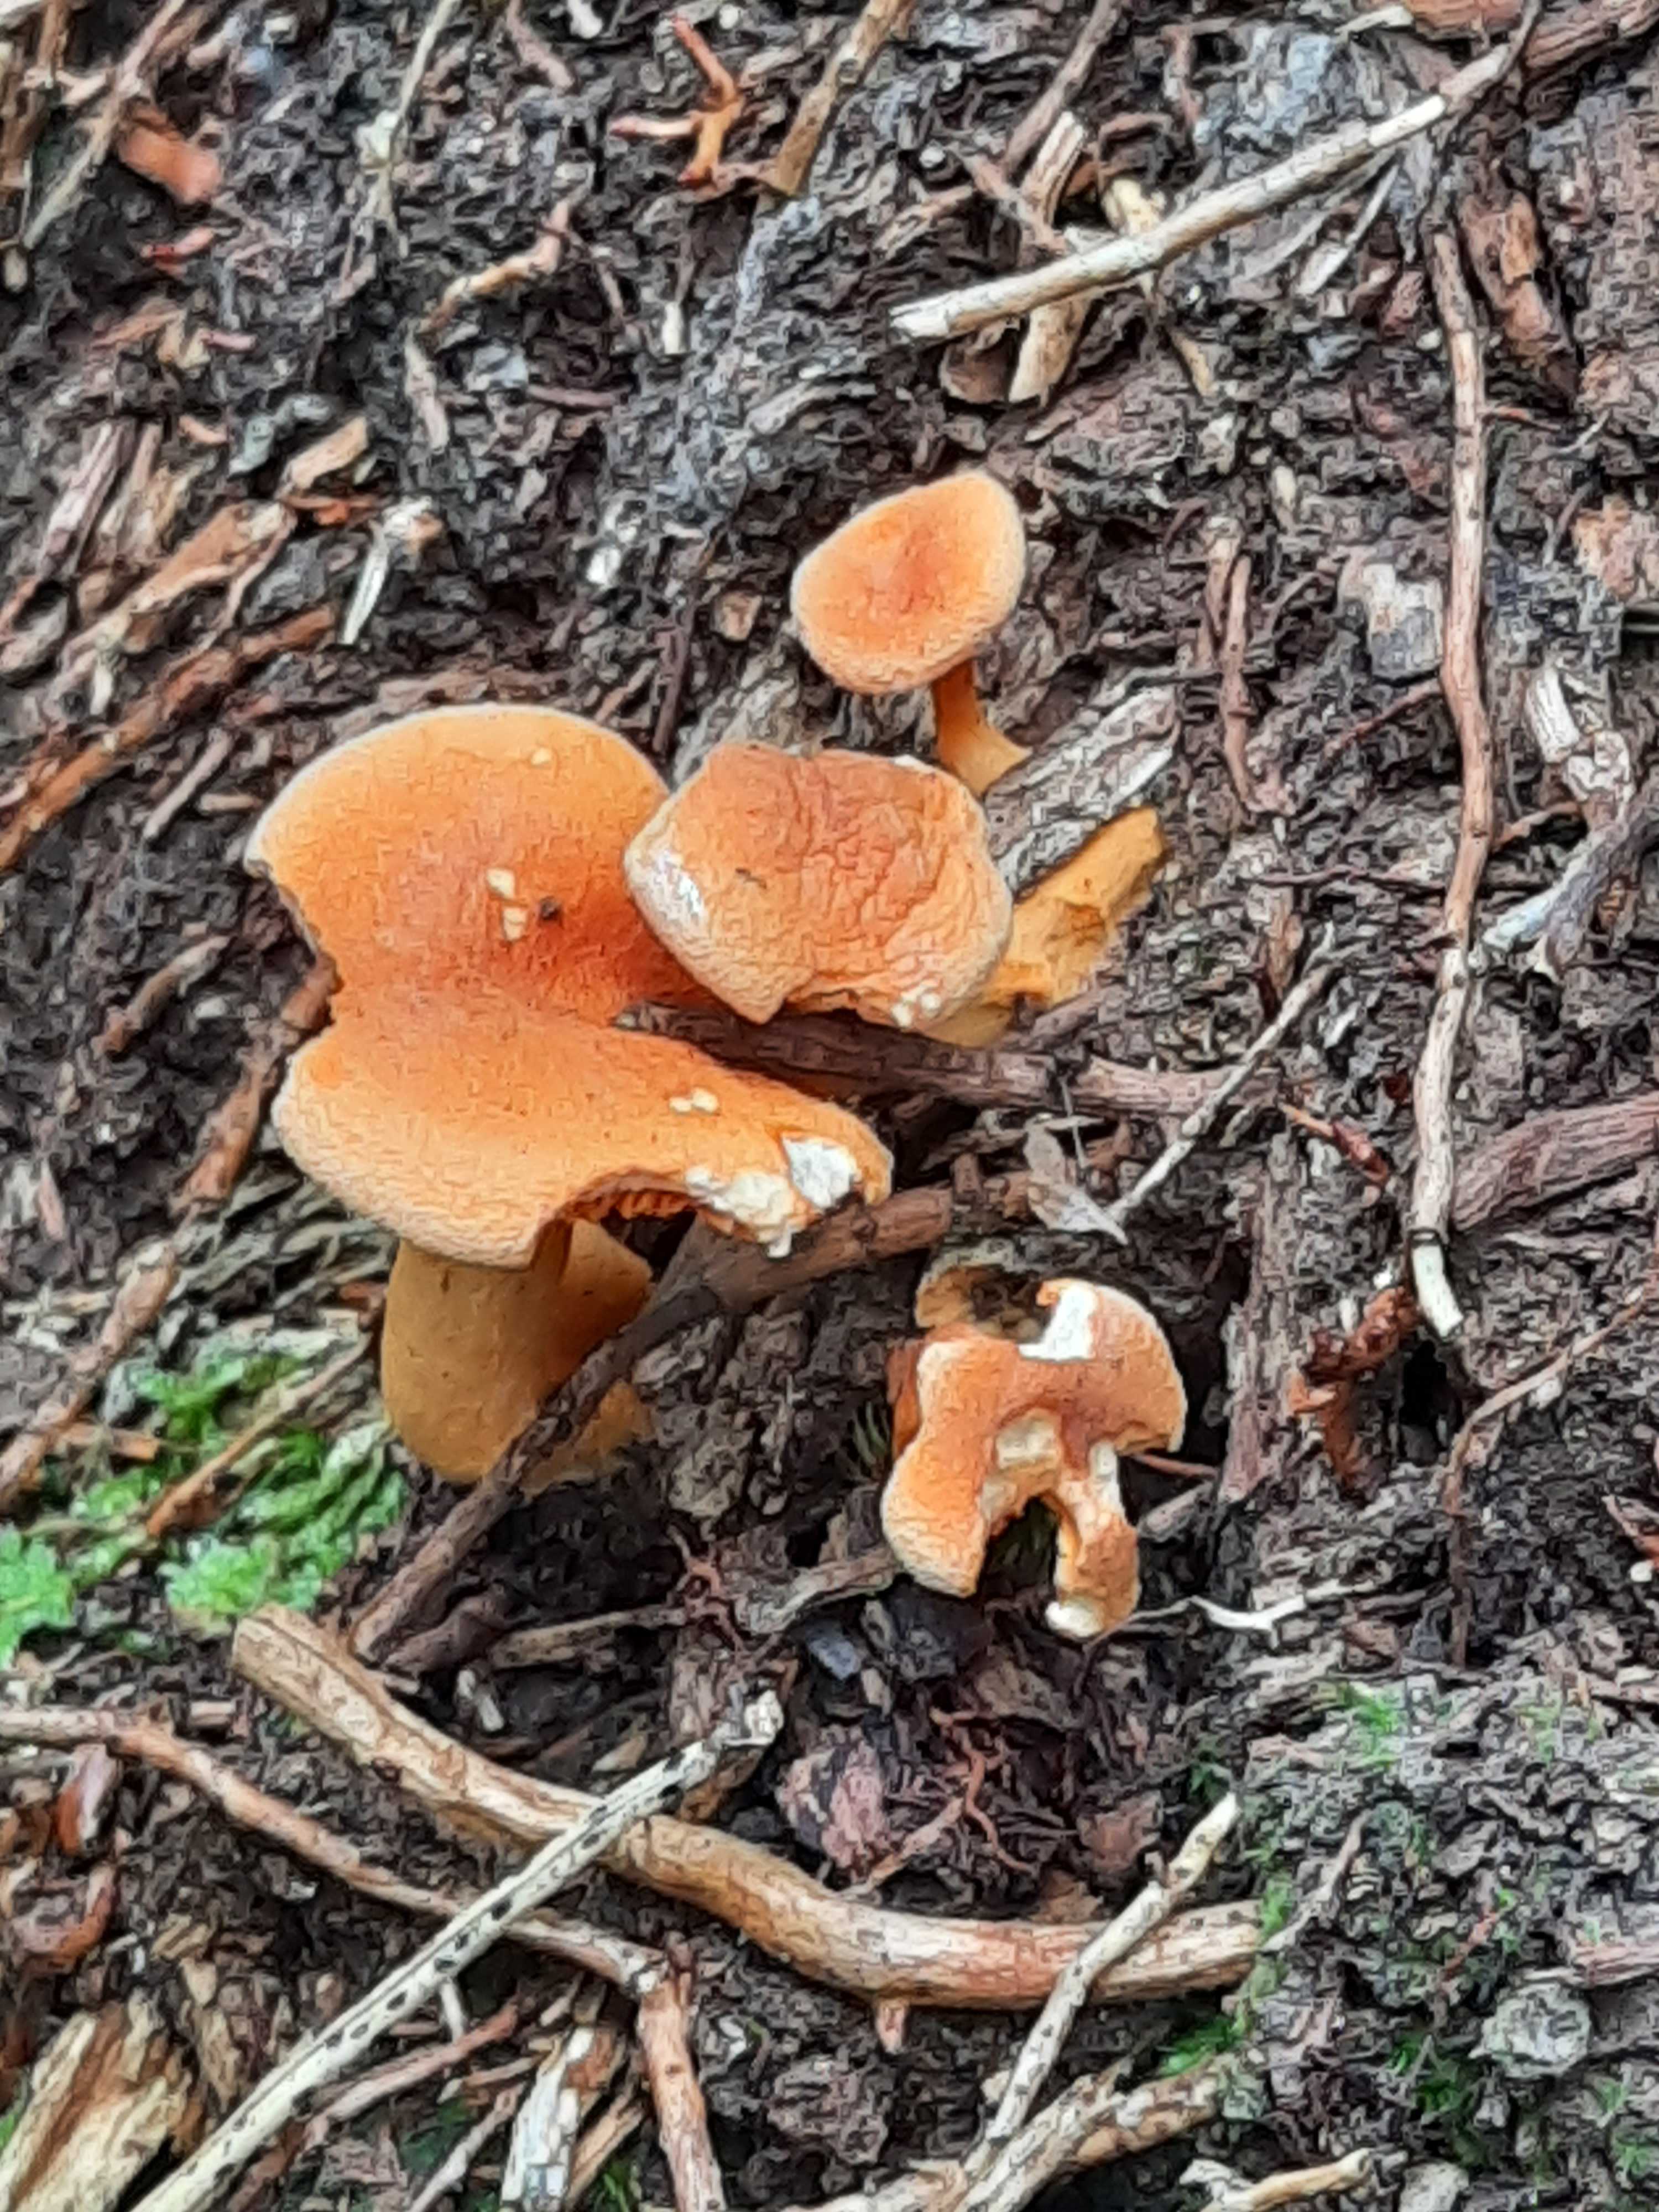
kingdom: Fungi
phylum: Basidiomycota
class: Agaricomycetes
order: Boletales
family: Hygrophoropsidaceae
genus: Hygrophoropsis
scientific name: Hygrophoropsis aurantiaca
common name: almindelig orangekantarel
